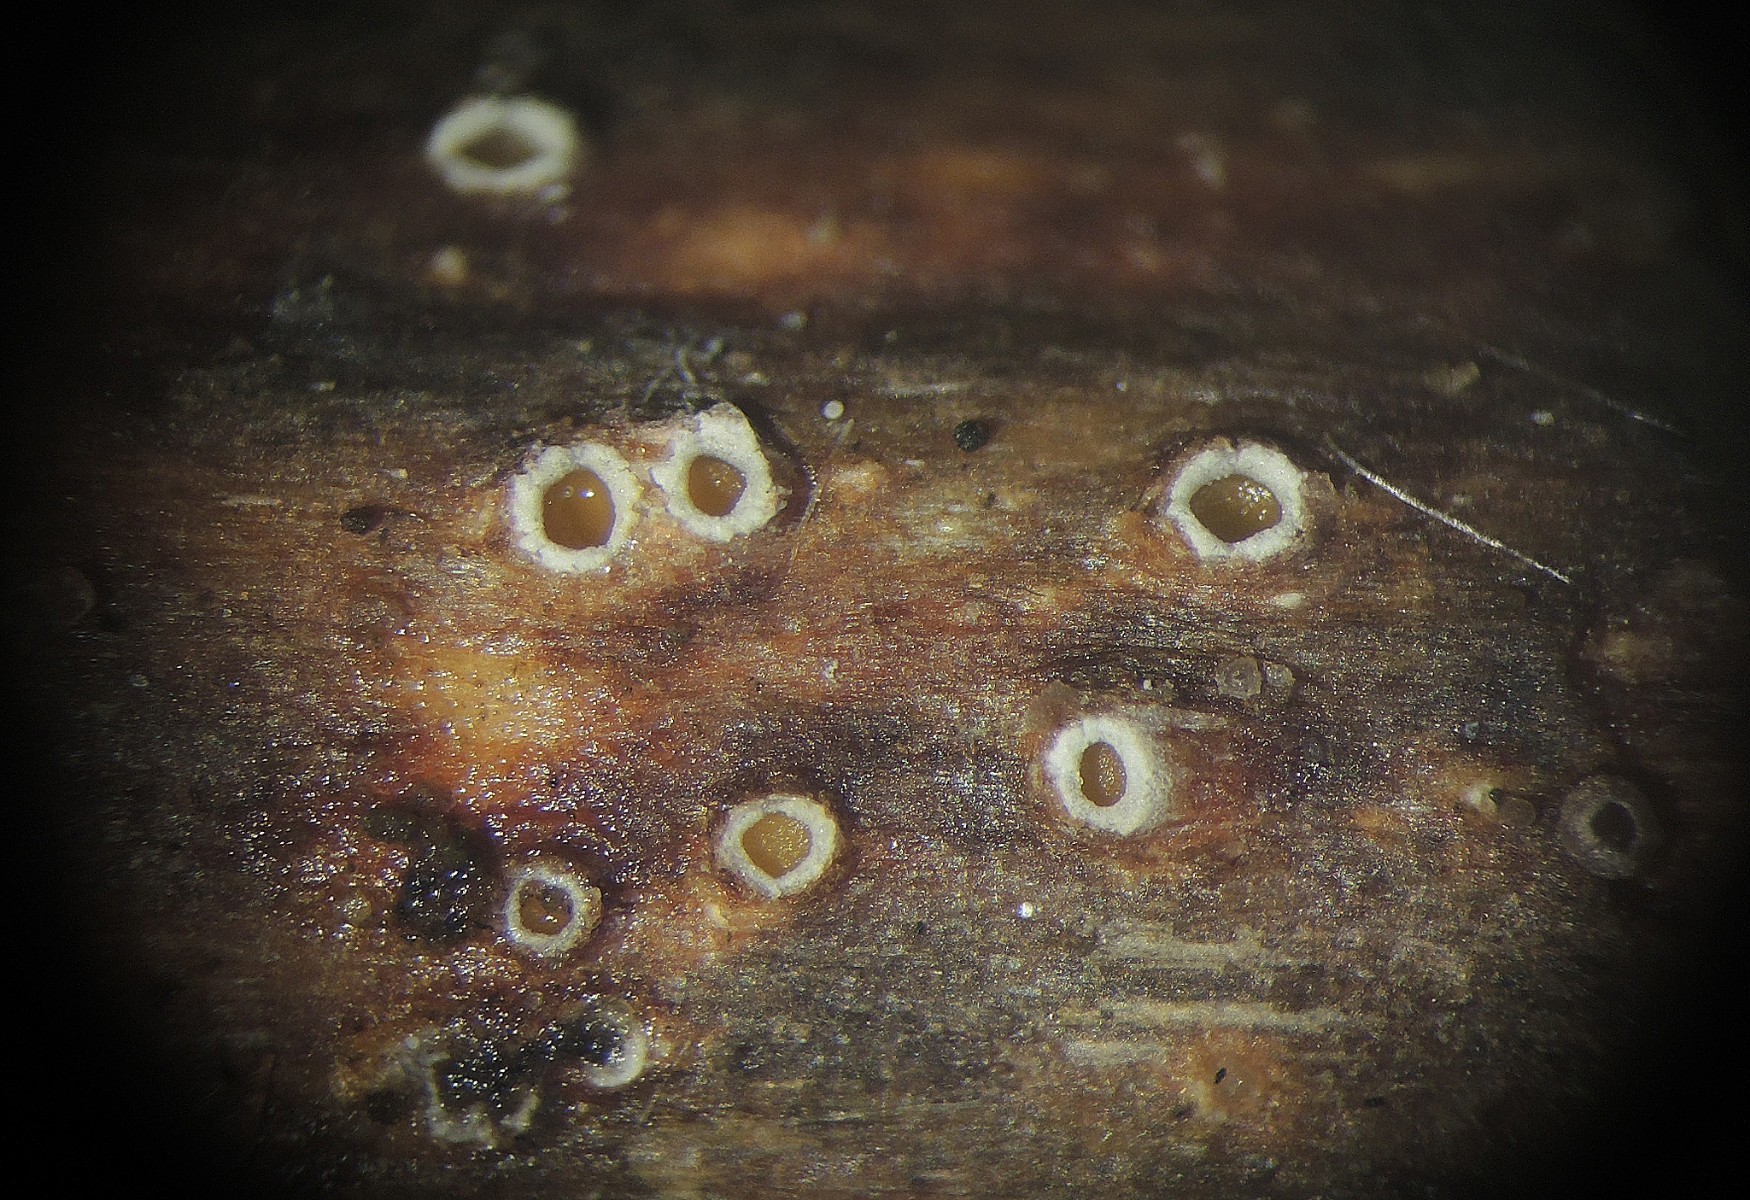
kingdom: Fungi
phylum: Ascomycota
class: Lecanoromycetes
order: Ostropales
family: Stictidaceae
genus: Stictis
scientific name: Stictis radiata
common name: tandet barkhul
